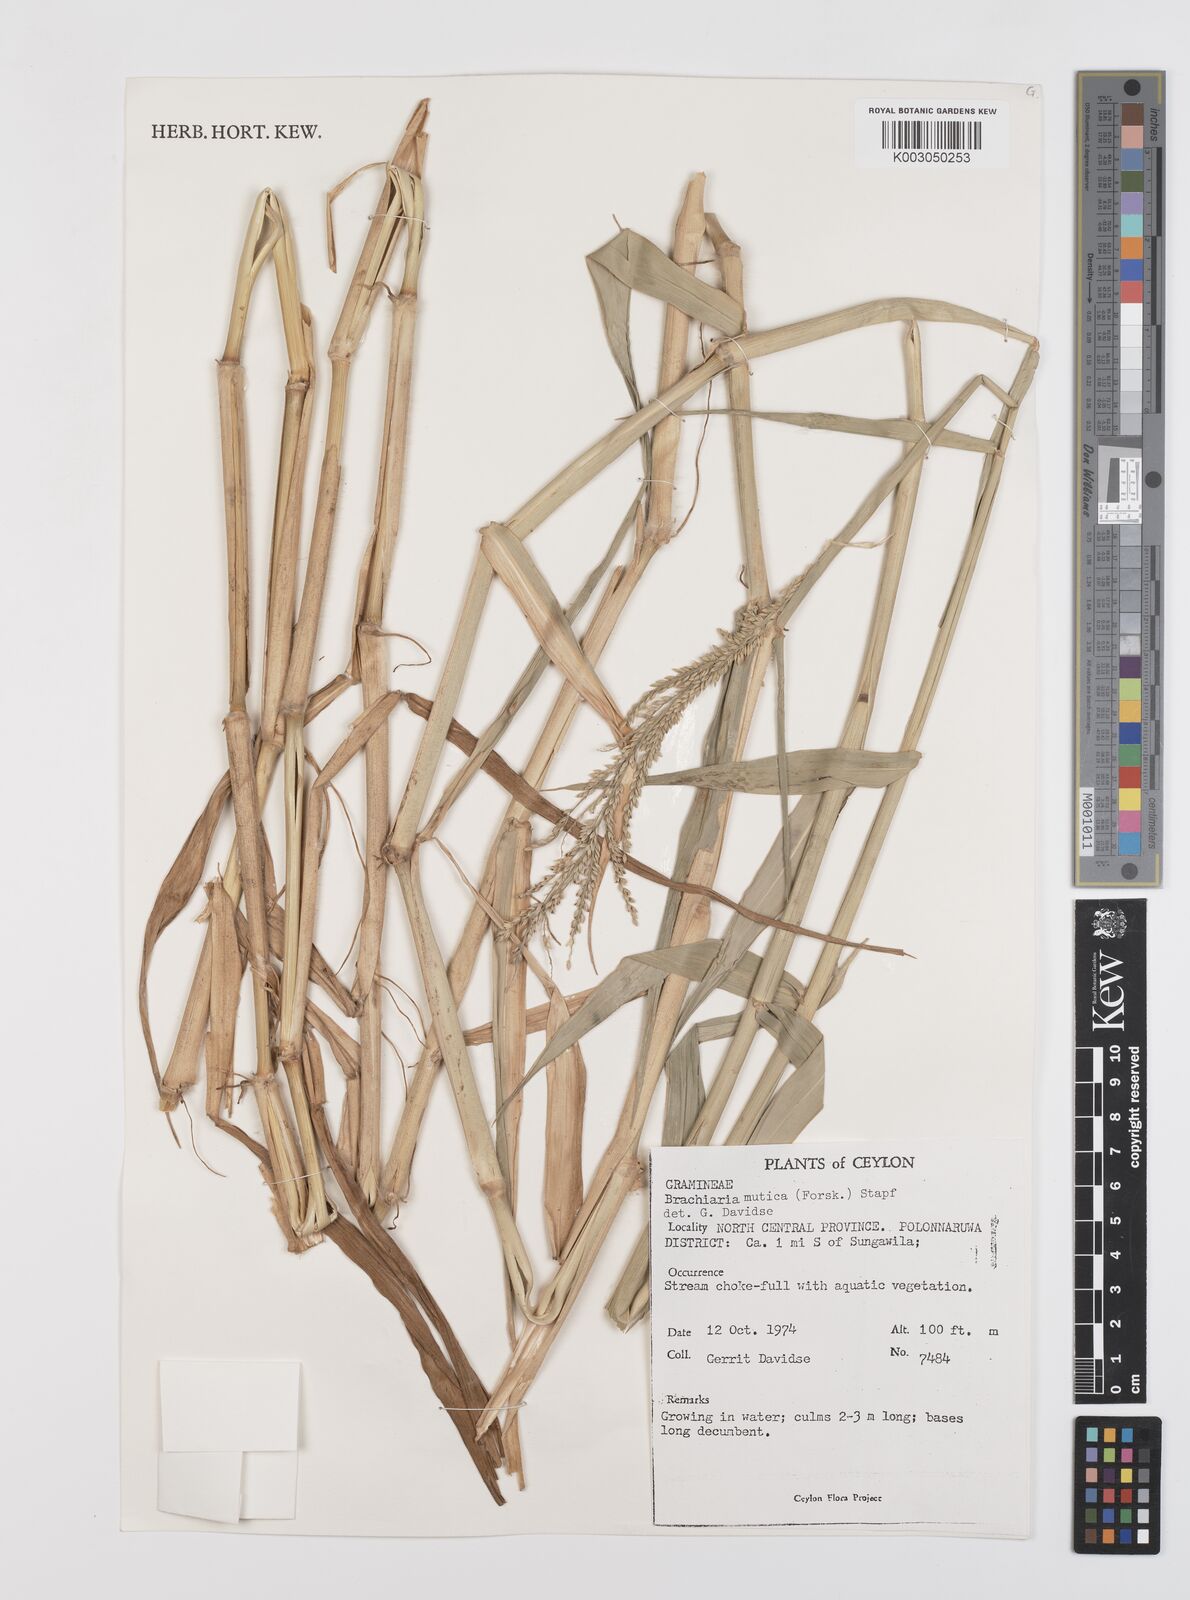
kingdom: Plantae
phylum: Tracheophyta
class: Liliopsida
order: Poales
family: Poaceae
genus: Urochloa
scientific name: Urochloa mutica
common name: Para grass
